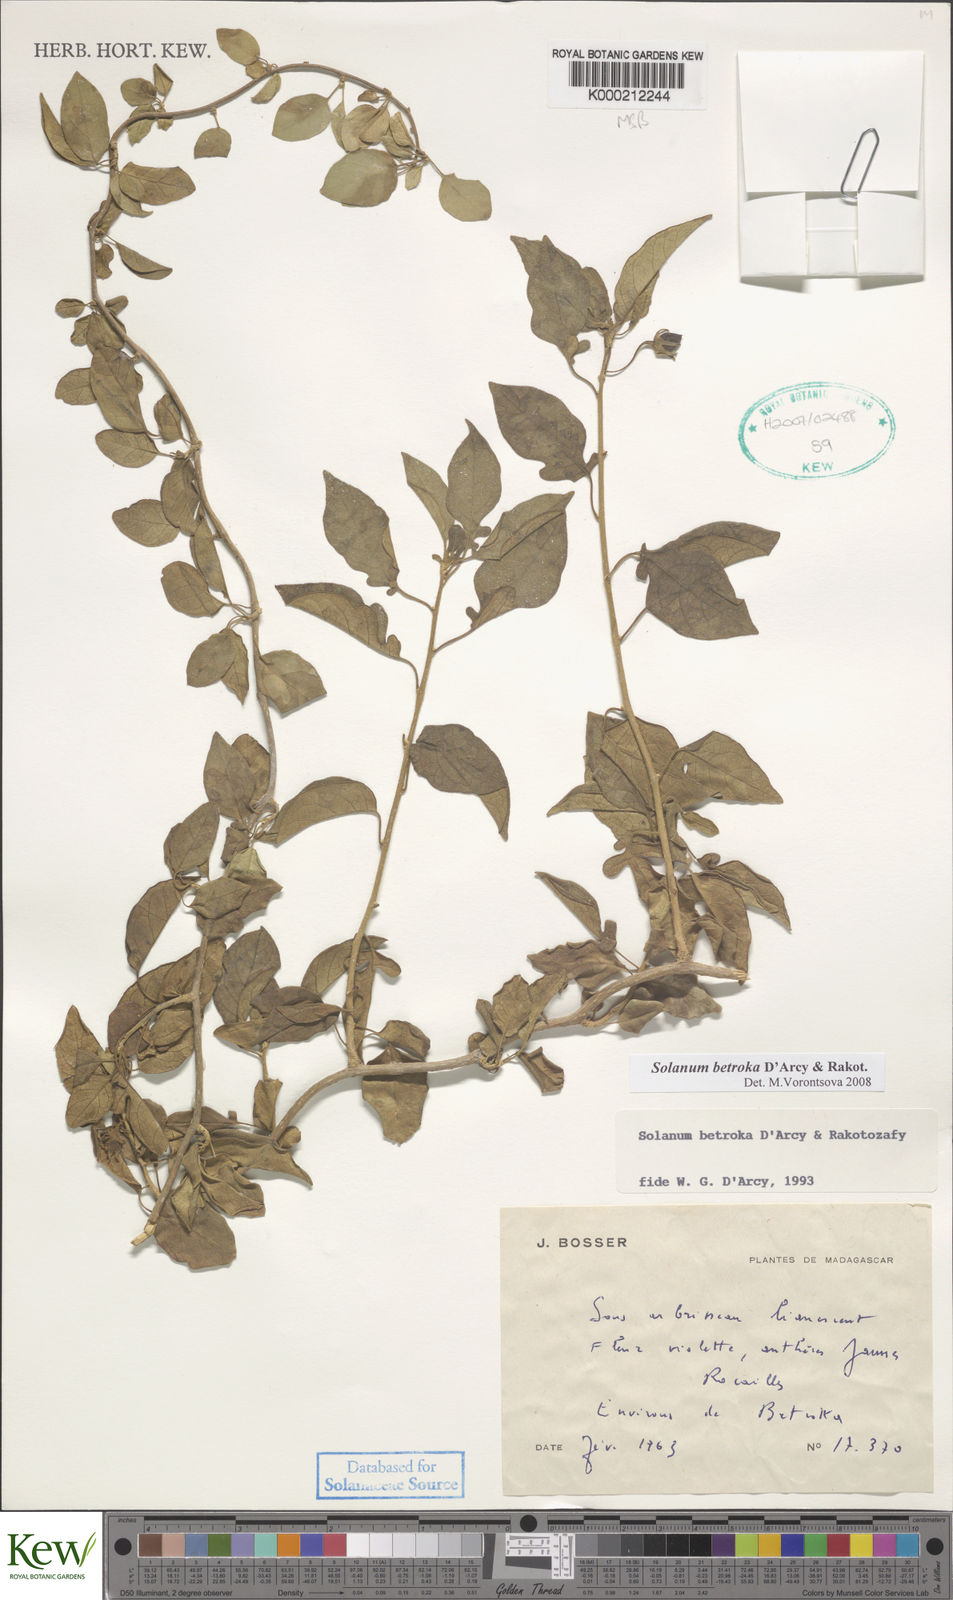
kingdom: Plantae
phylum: Tracheophyta
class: Magnoliopsida
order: Solanales
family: Solanaceae
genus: Solanum
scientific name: Solanum betroka
